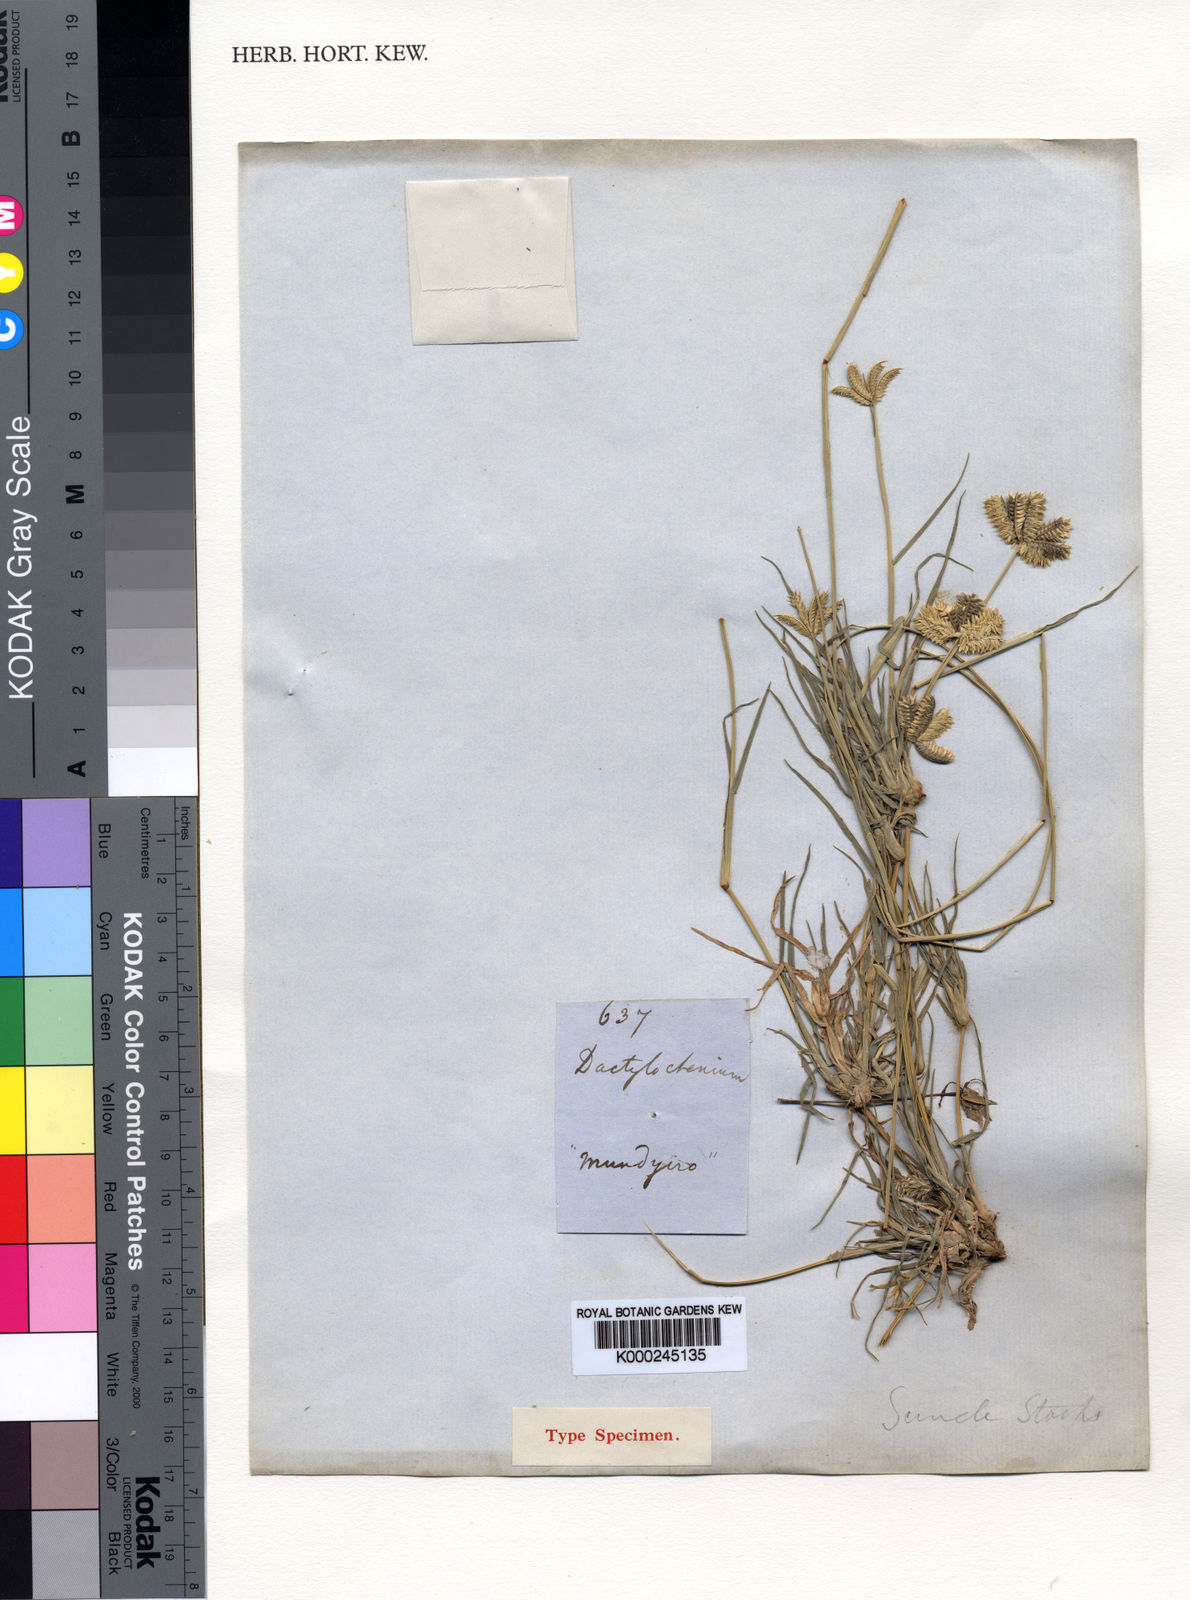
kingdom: Plantae
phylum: Tracheophyta
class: Liliopsida
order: Poales
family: Poaceae
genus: Dactyloctenium
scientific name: Dactyloctenium scindicum
